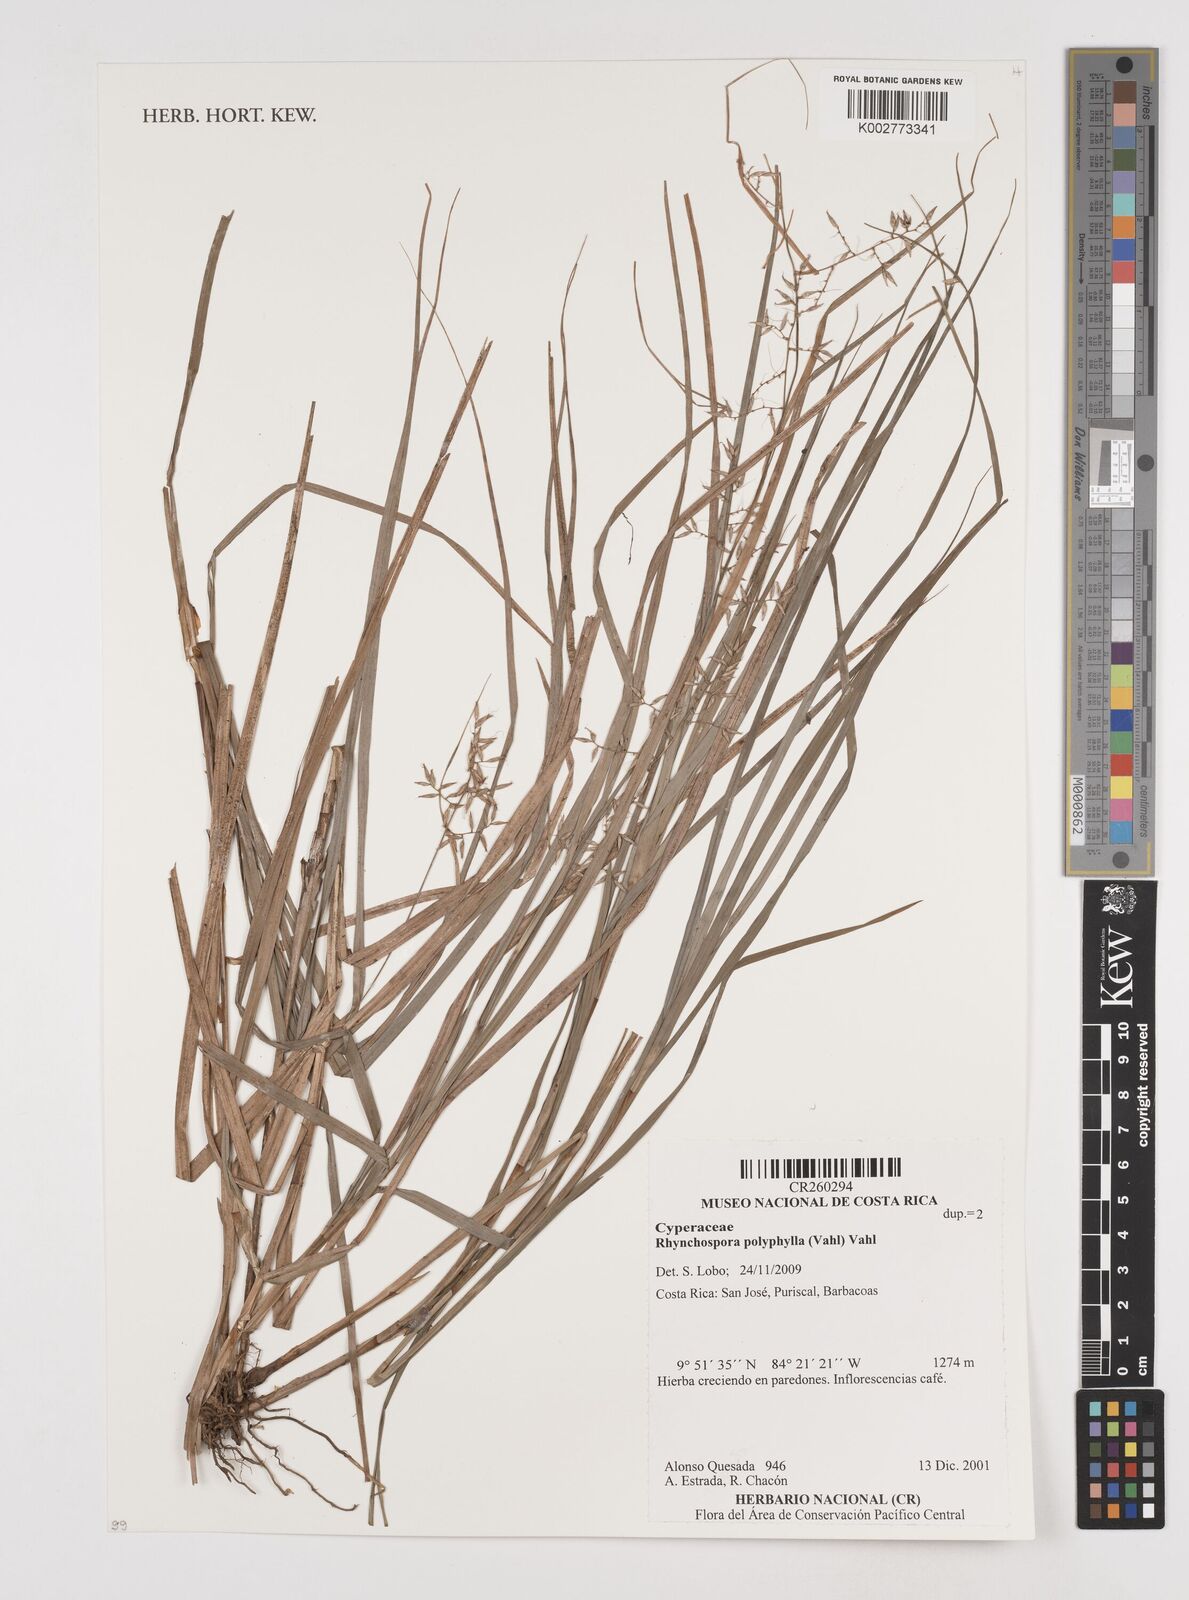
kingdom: Plantae
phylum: Tracheophyta
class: Liliopsida
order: Poales
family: Cyperaceae
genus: Rhynchospora
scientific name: Rhynchospora polyphylla
